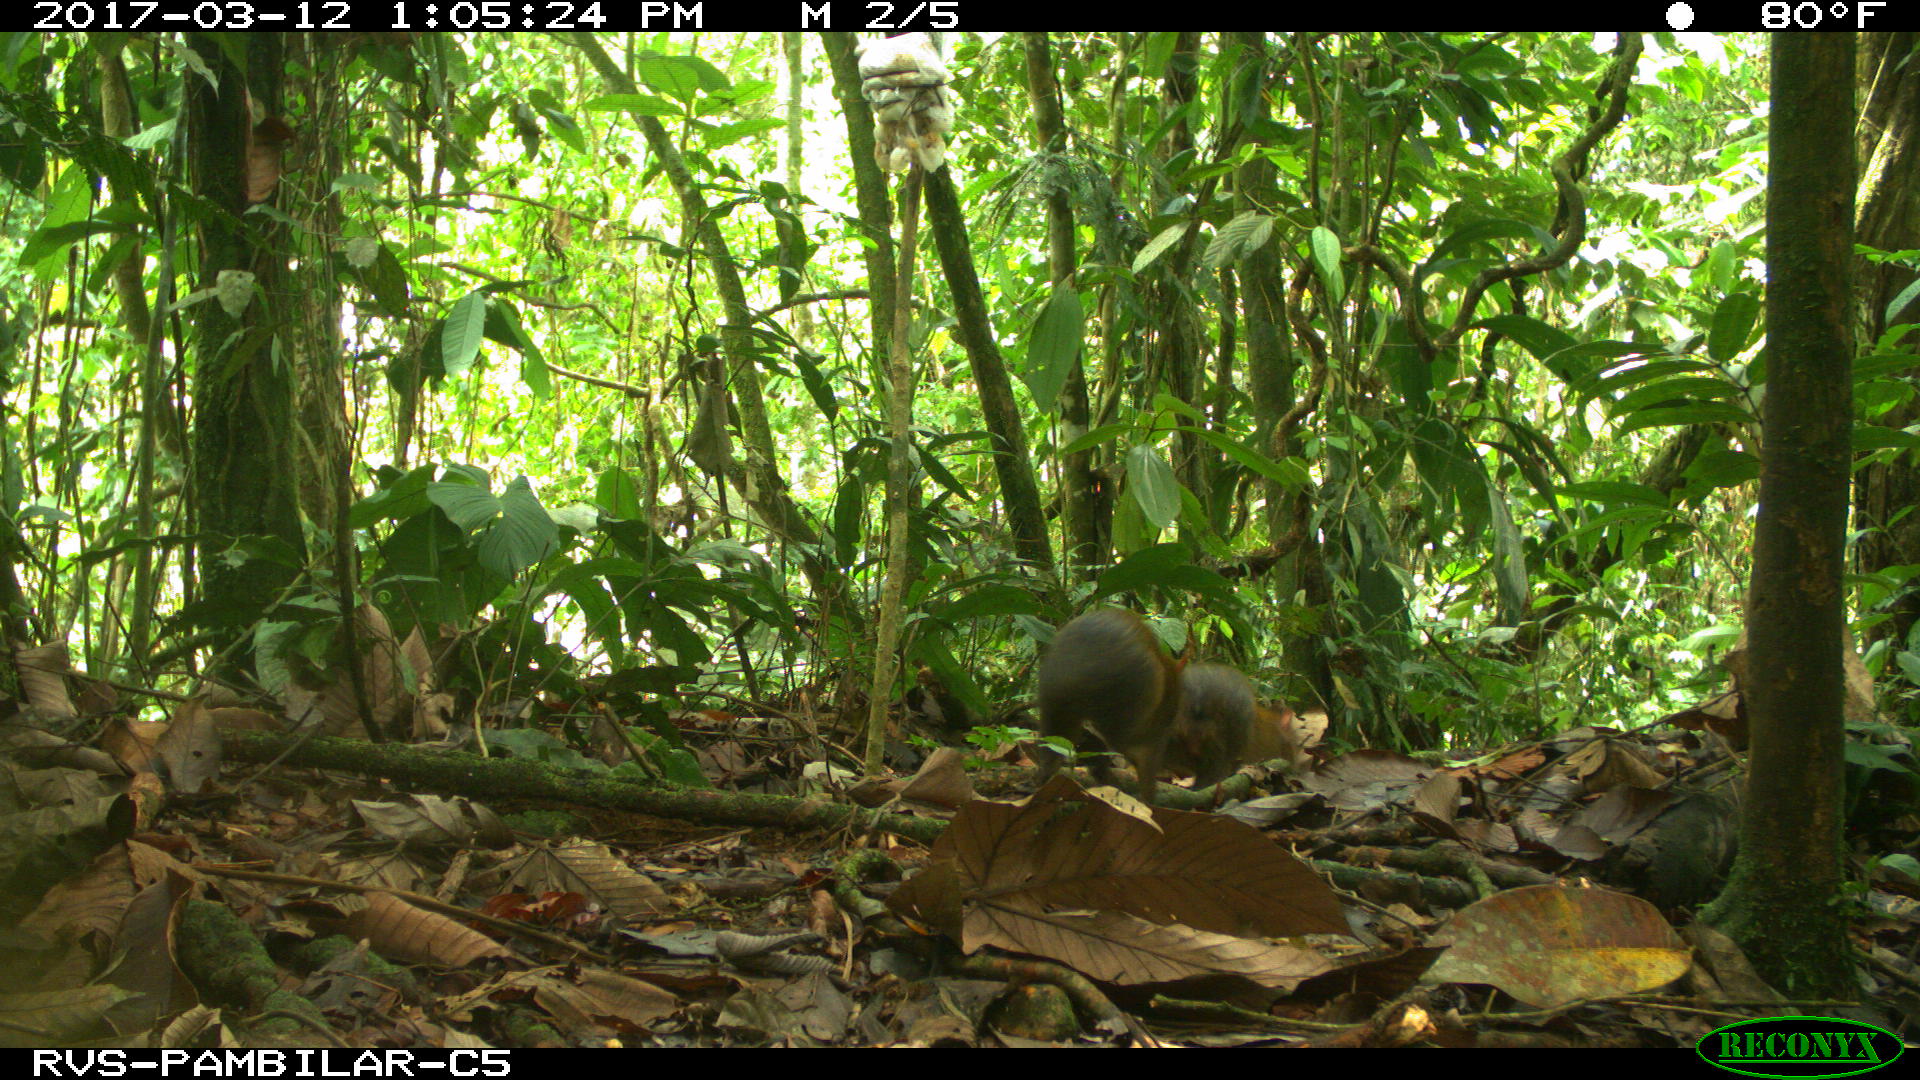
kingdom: Animalia
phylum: Chordata
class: Mammalia
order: Rodentia
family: Dasyproctidae
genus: Dasyprocta
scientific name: Dasyprocta punctata
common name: Central american agouti
